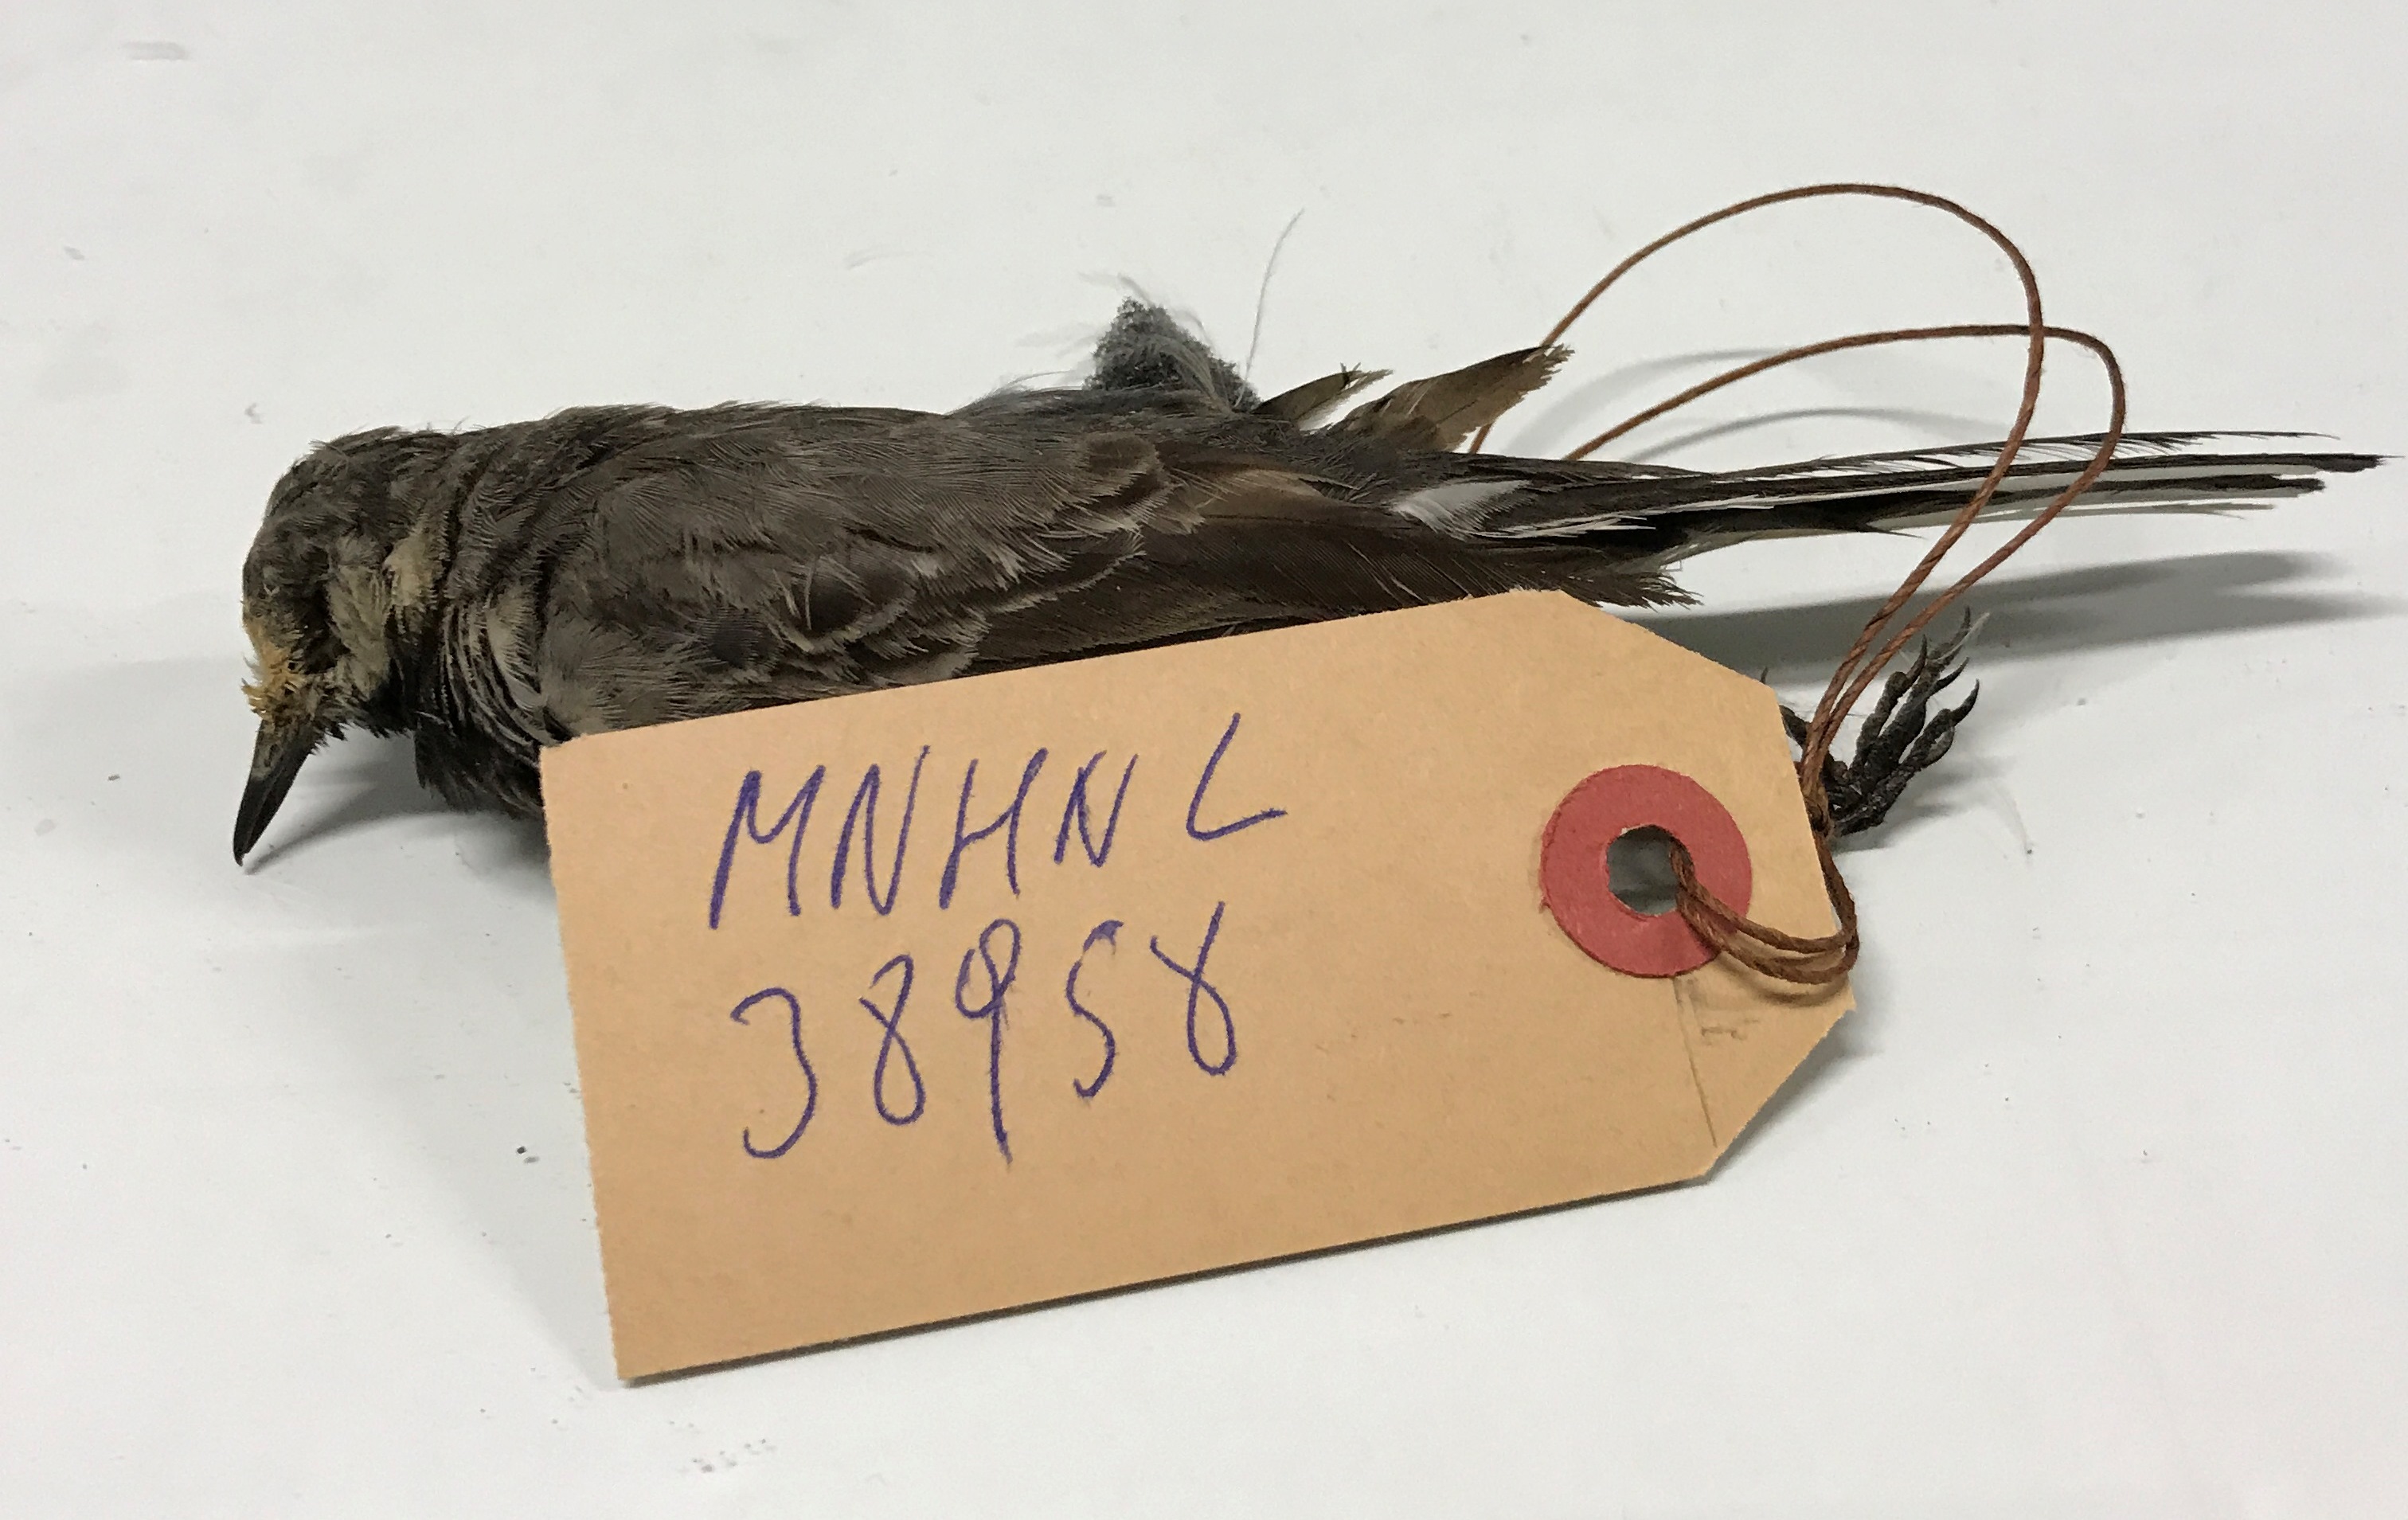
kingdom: Animalia
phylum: Chordata
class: Aves
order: Passeriformes
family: Motacillidae
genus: Motacilla
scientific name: Motacilla alba
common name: White wagtail
